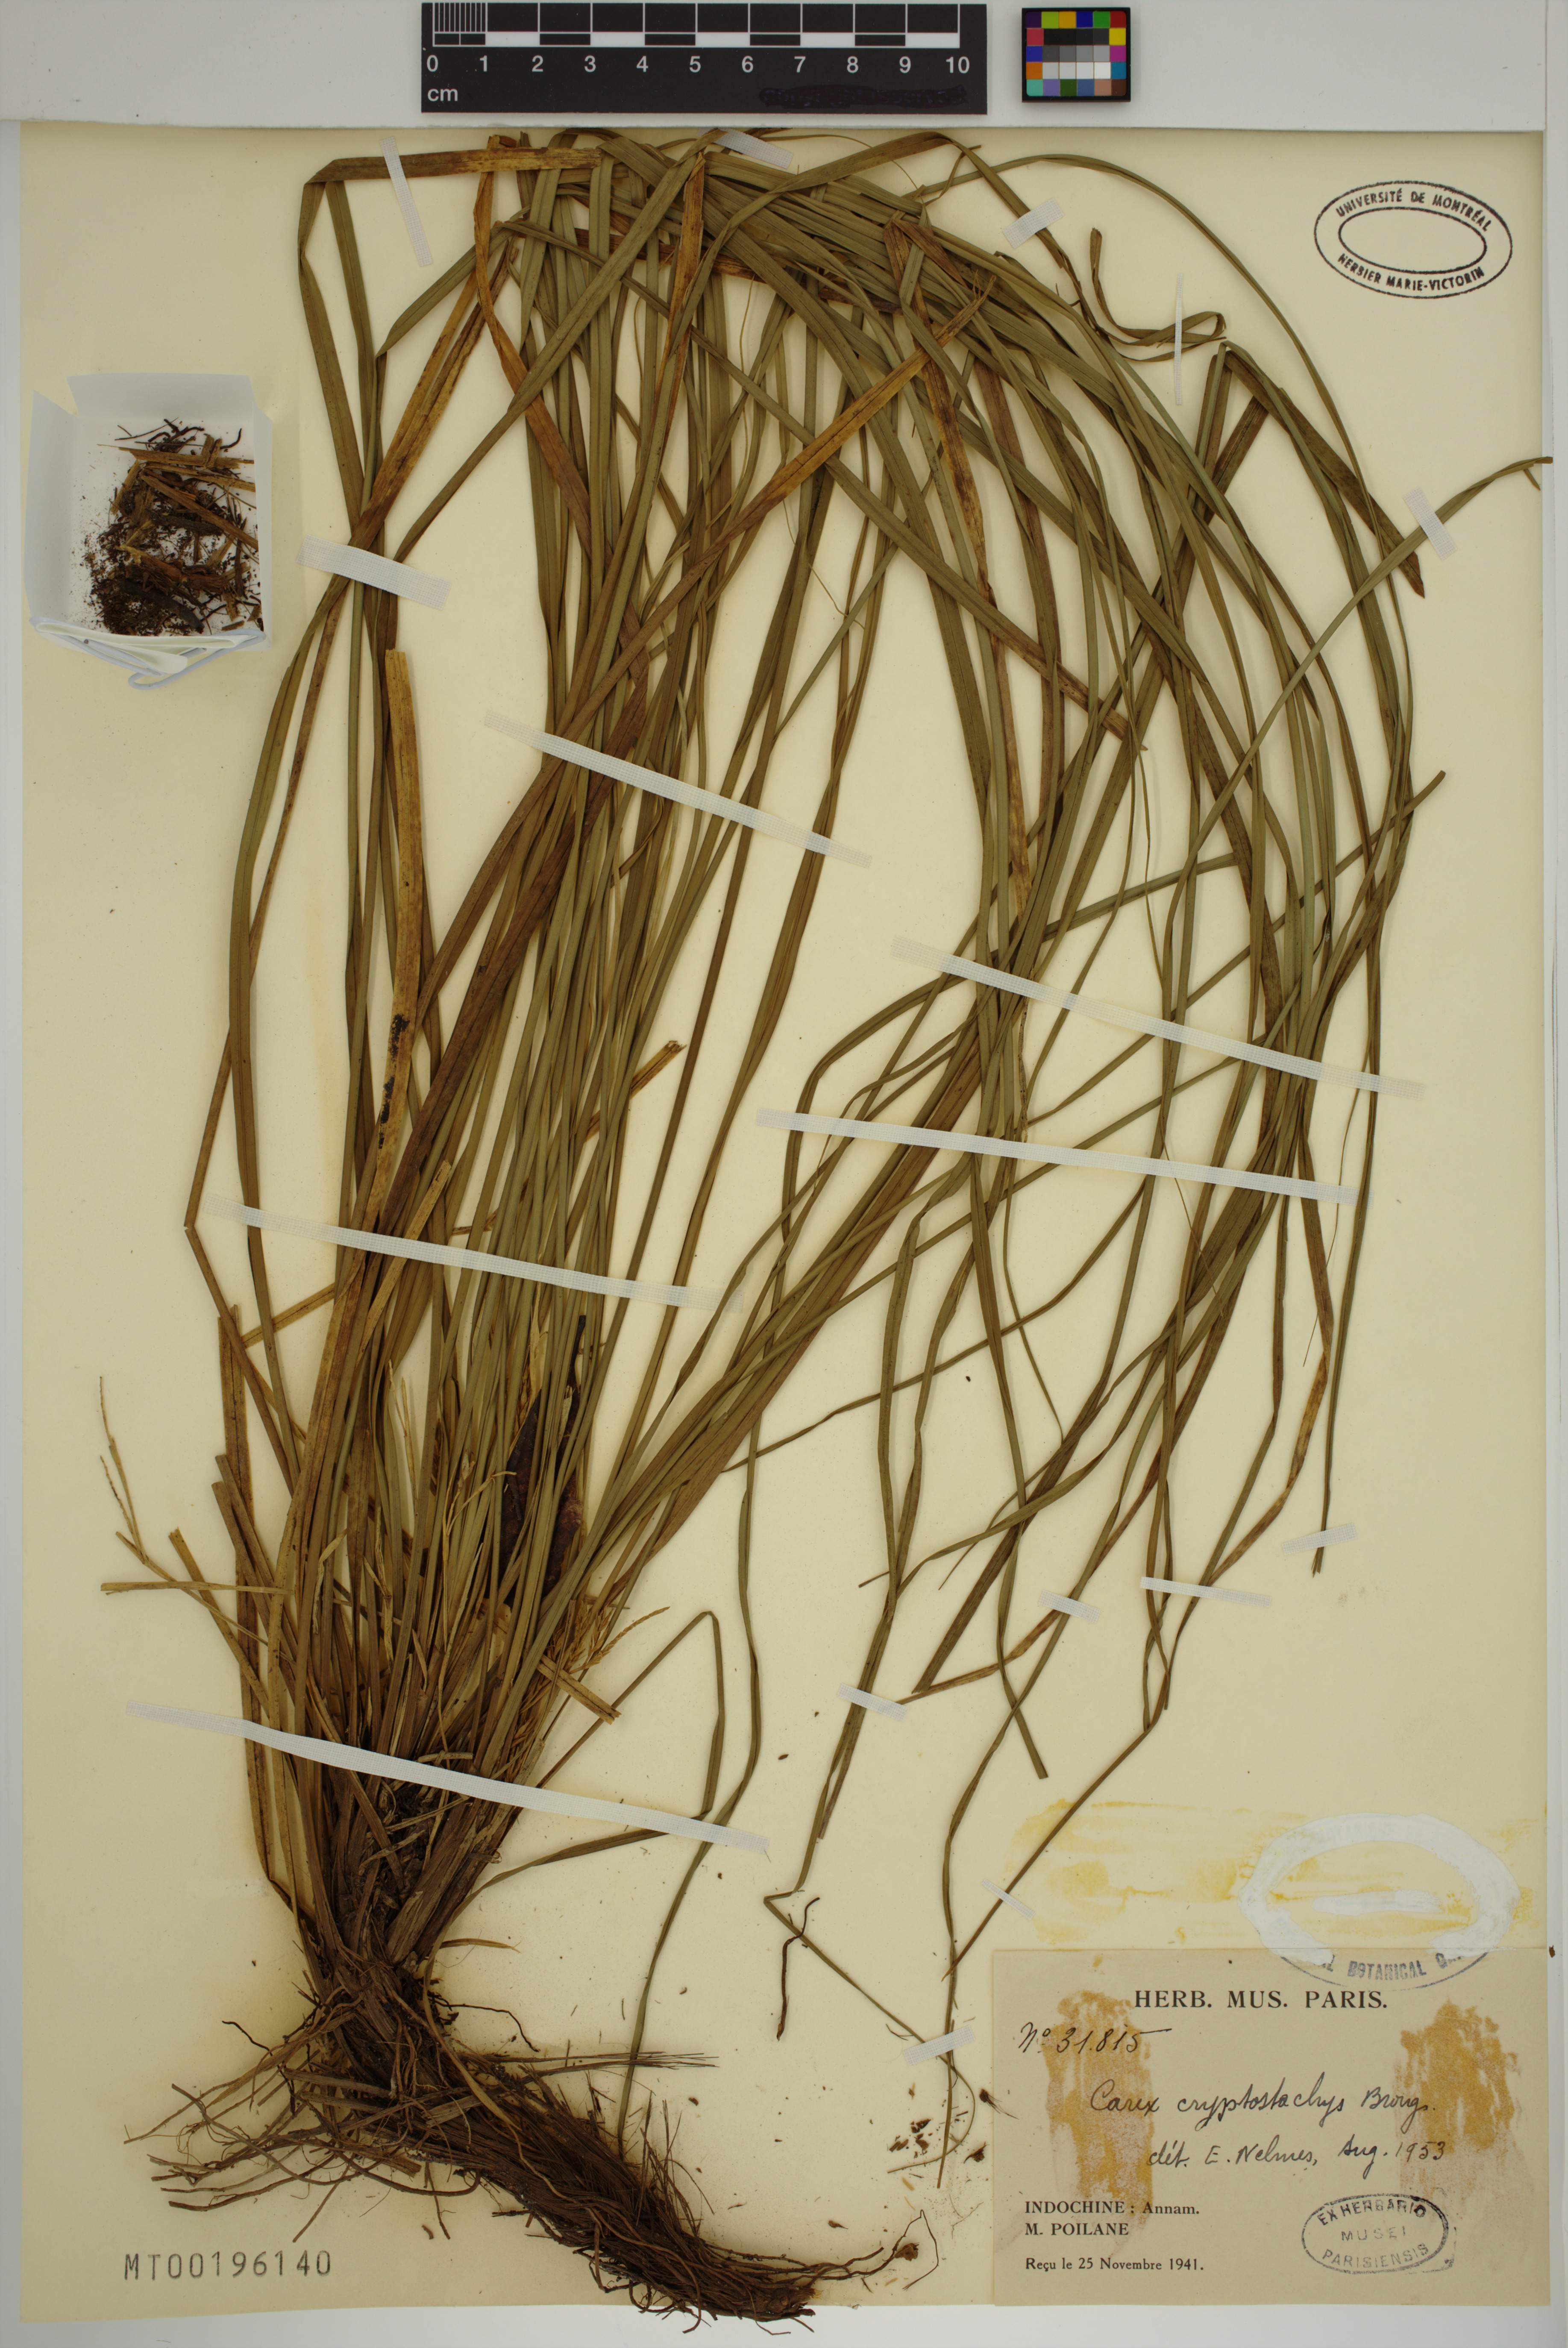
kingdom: Plantae
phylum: Tracheophyta
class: Liliopsida
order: Poales
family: Cyperaceae
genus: Carex
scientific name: Carex cryptostachys
